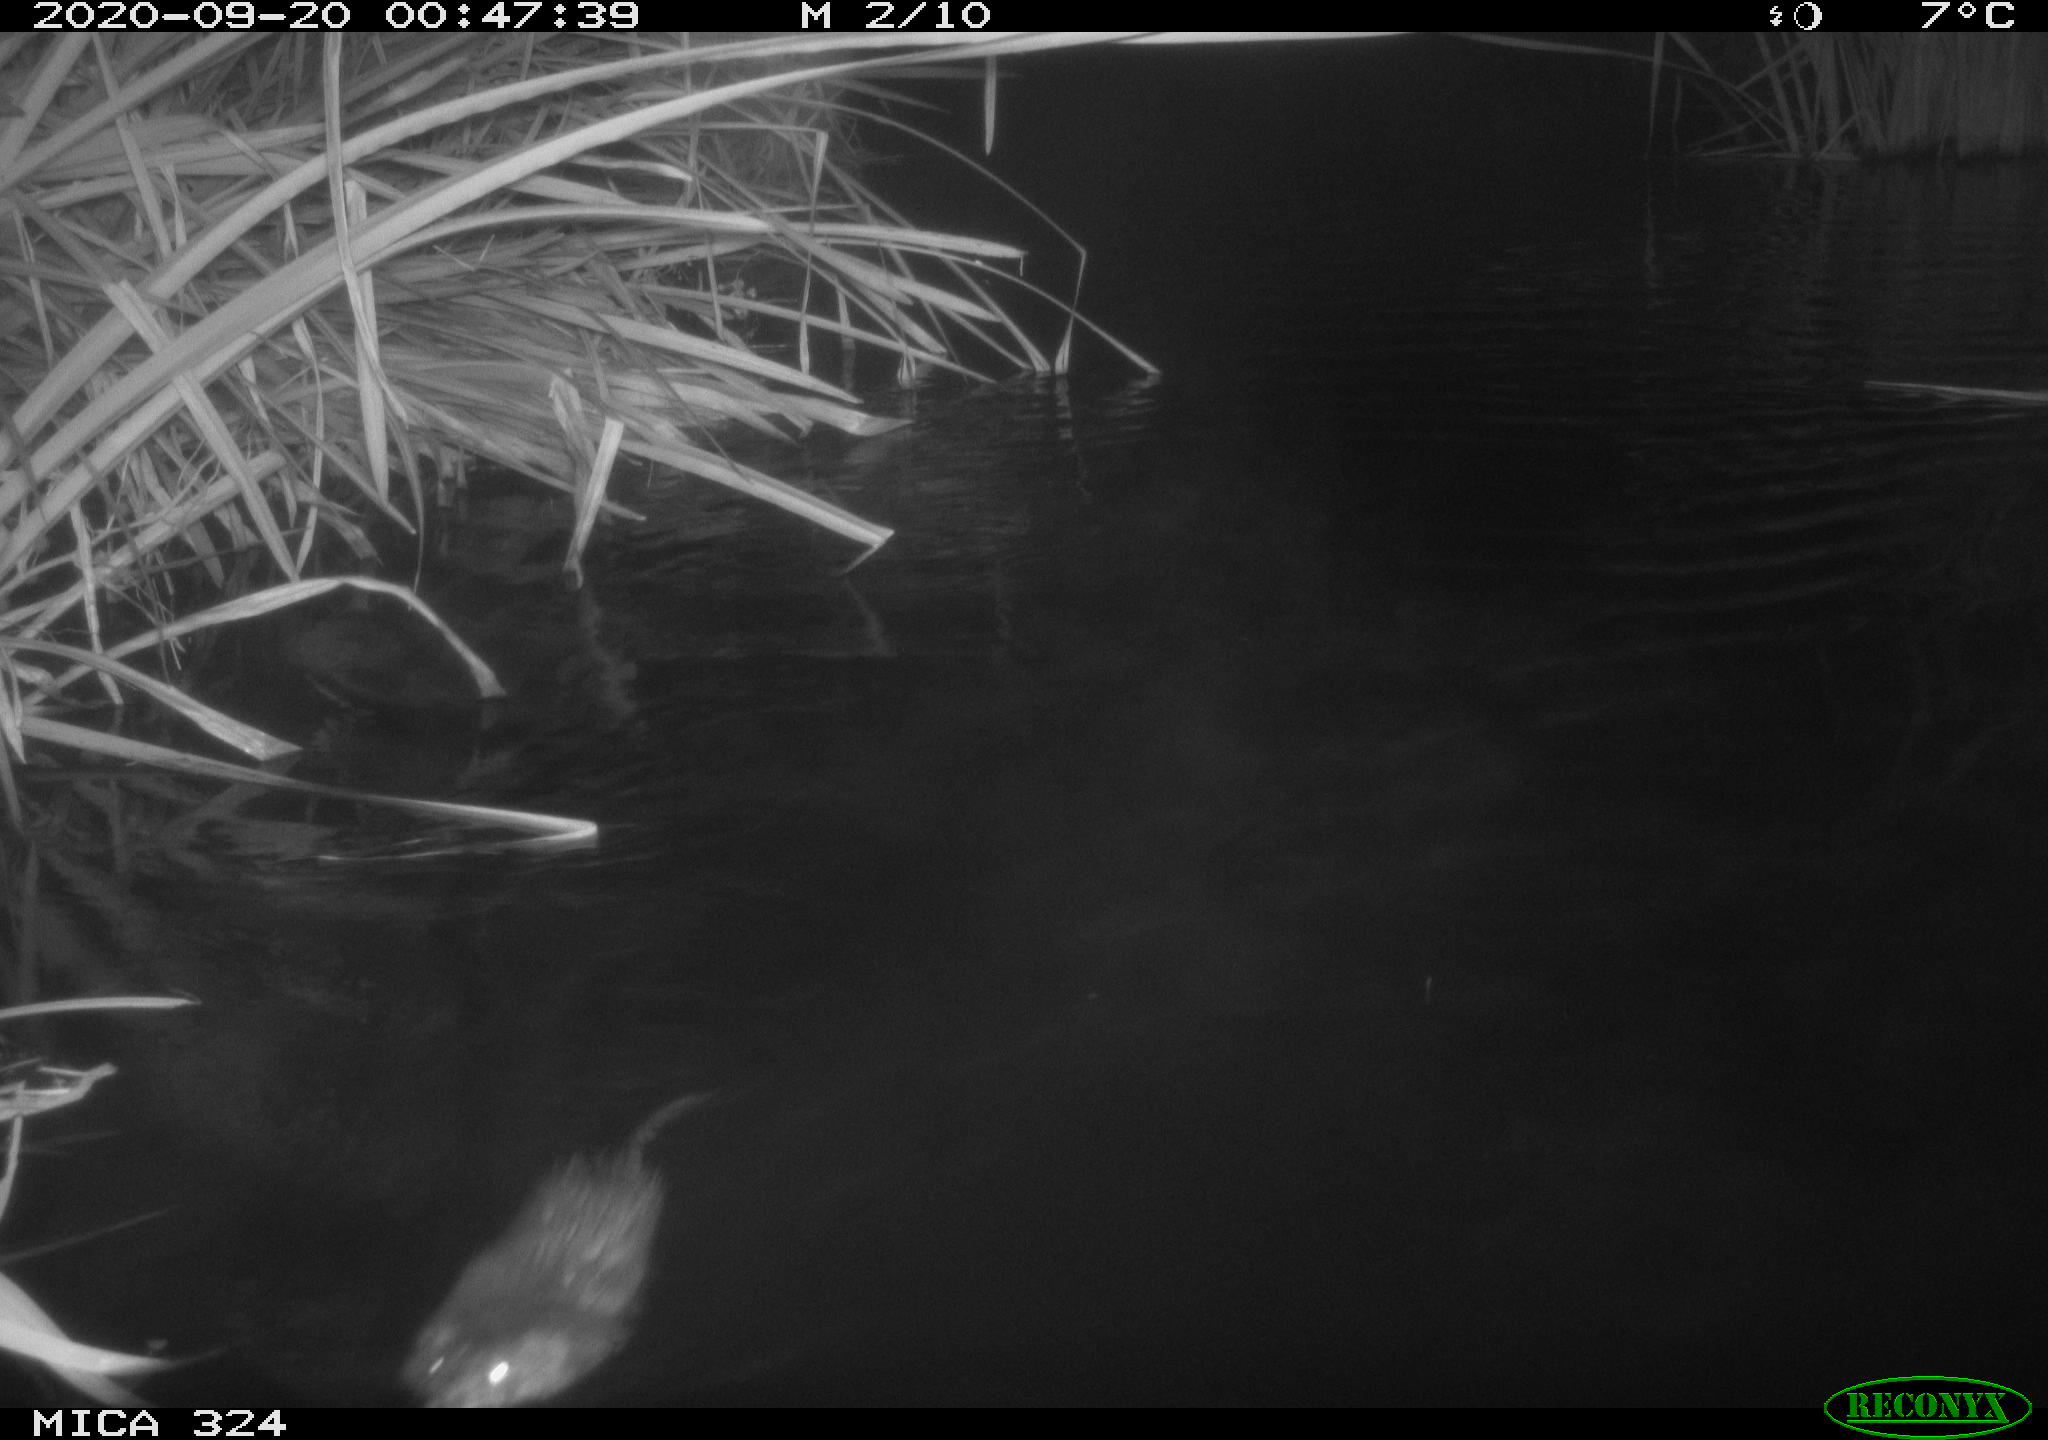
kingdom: Animalia
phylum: Chordata
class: Mammalia
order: Rodentia
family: Cricetidae
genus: Ondatra
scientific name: Ondatra zibethicus
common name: Muskrat
